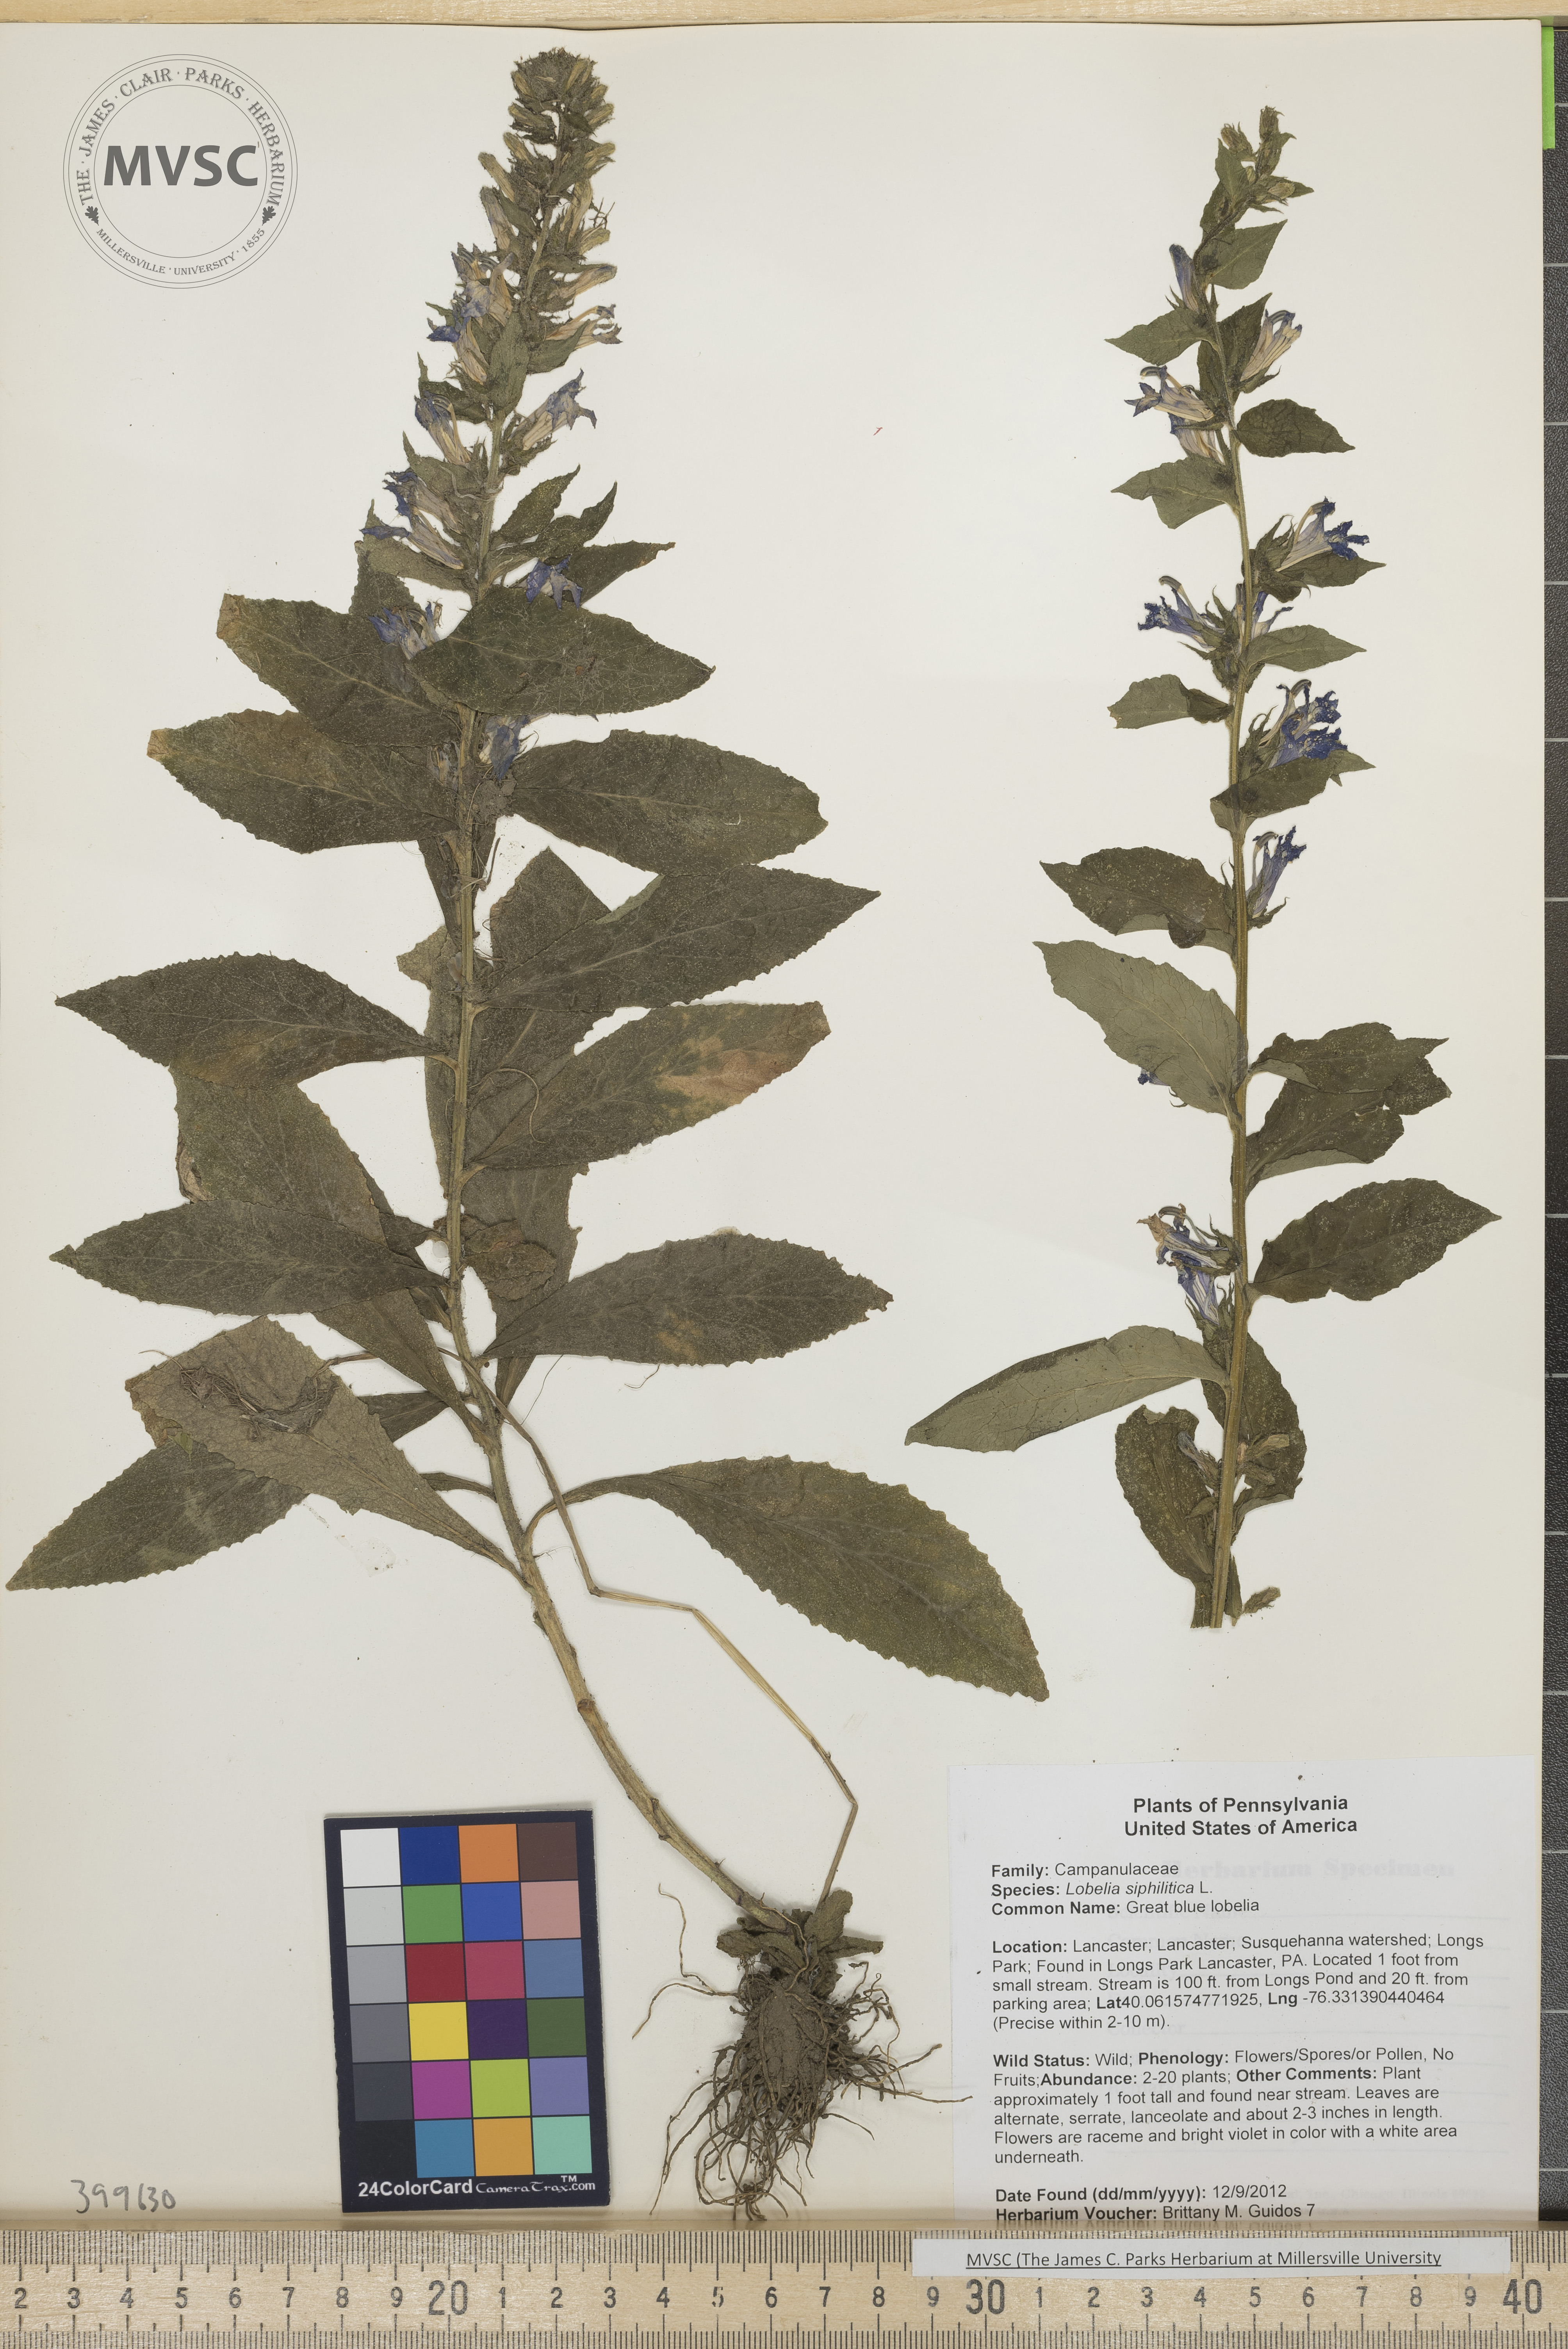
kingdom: Plantae
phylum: Tracheophyta
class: Magnoliopsida
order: Asterales
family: Campanulaceae
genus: Lobelia
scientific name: Lobelia siphilitica
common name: Great blue lobelia
